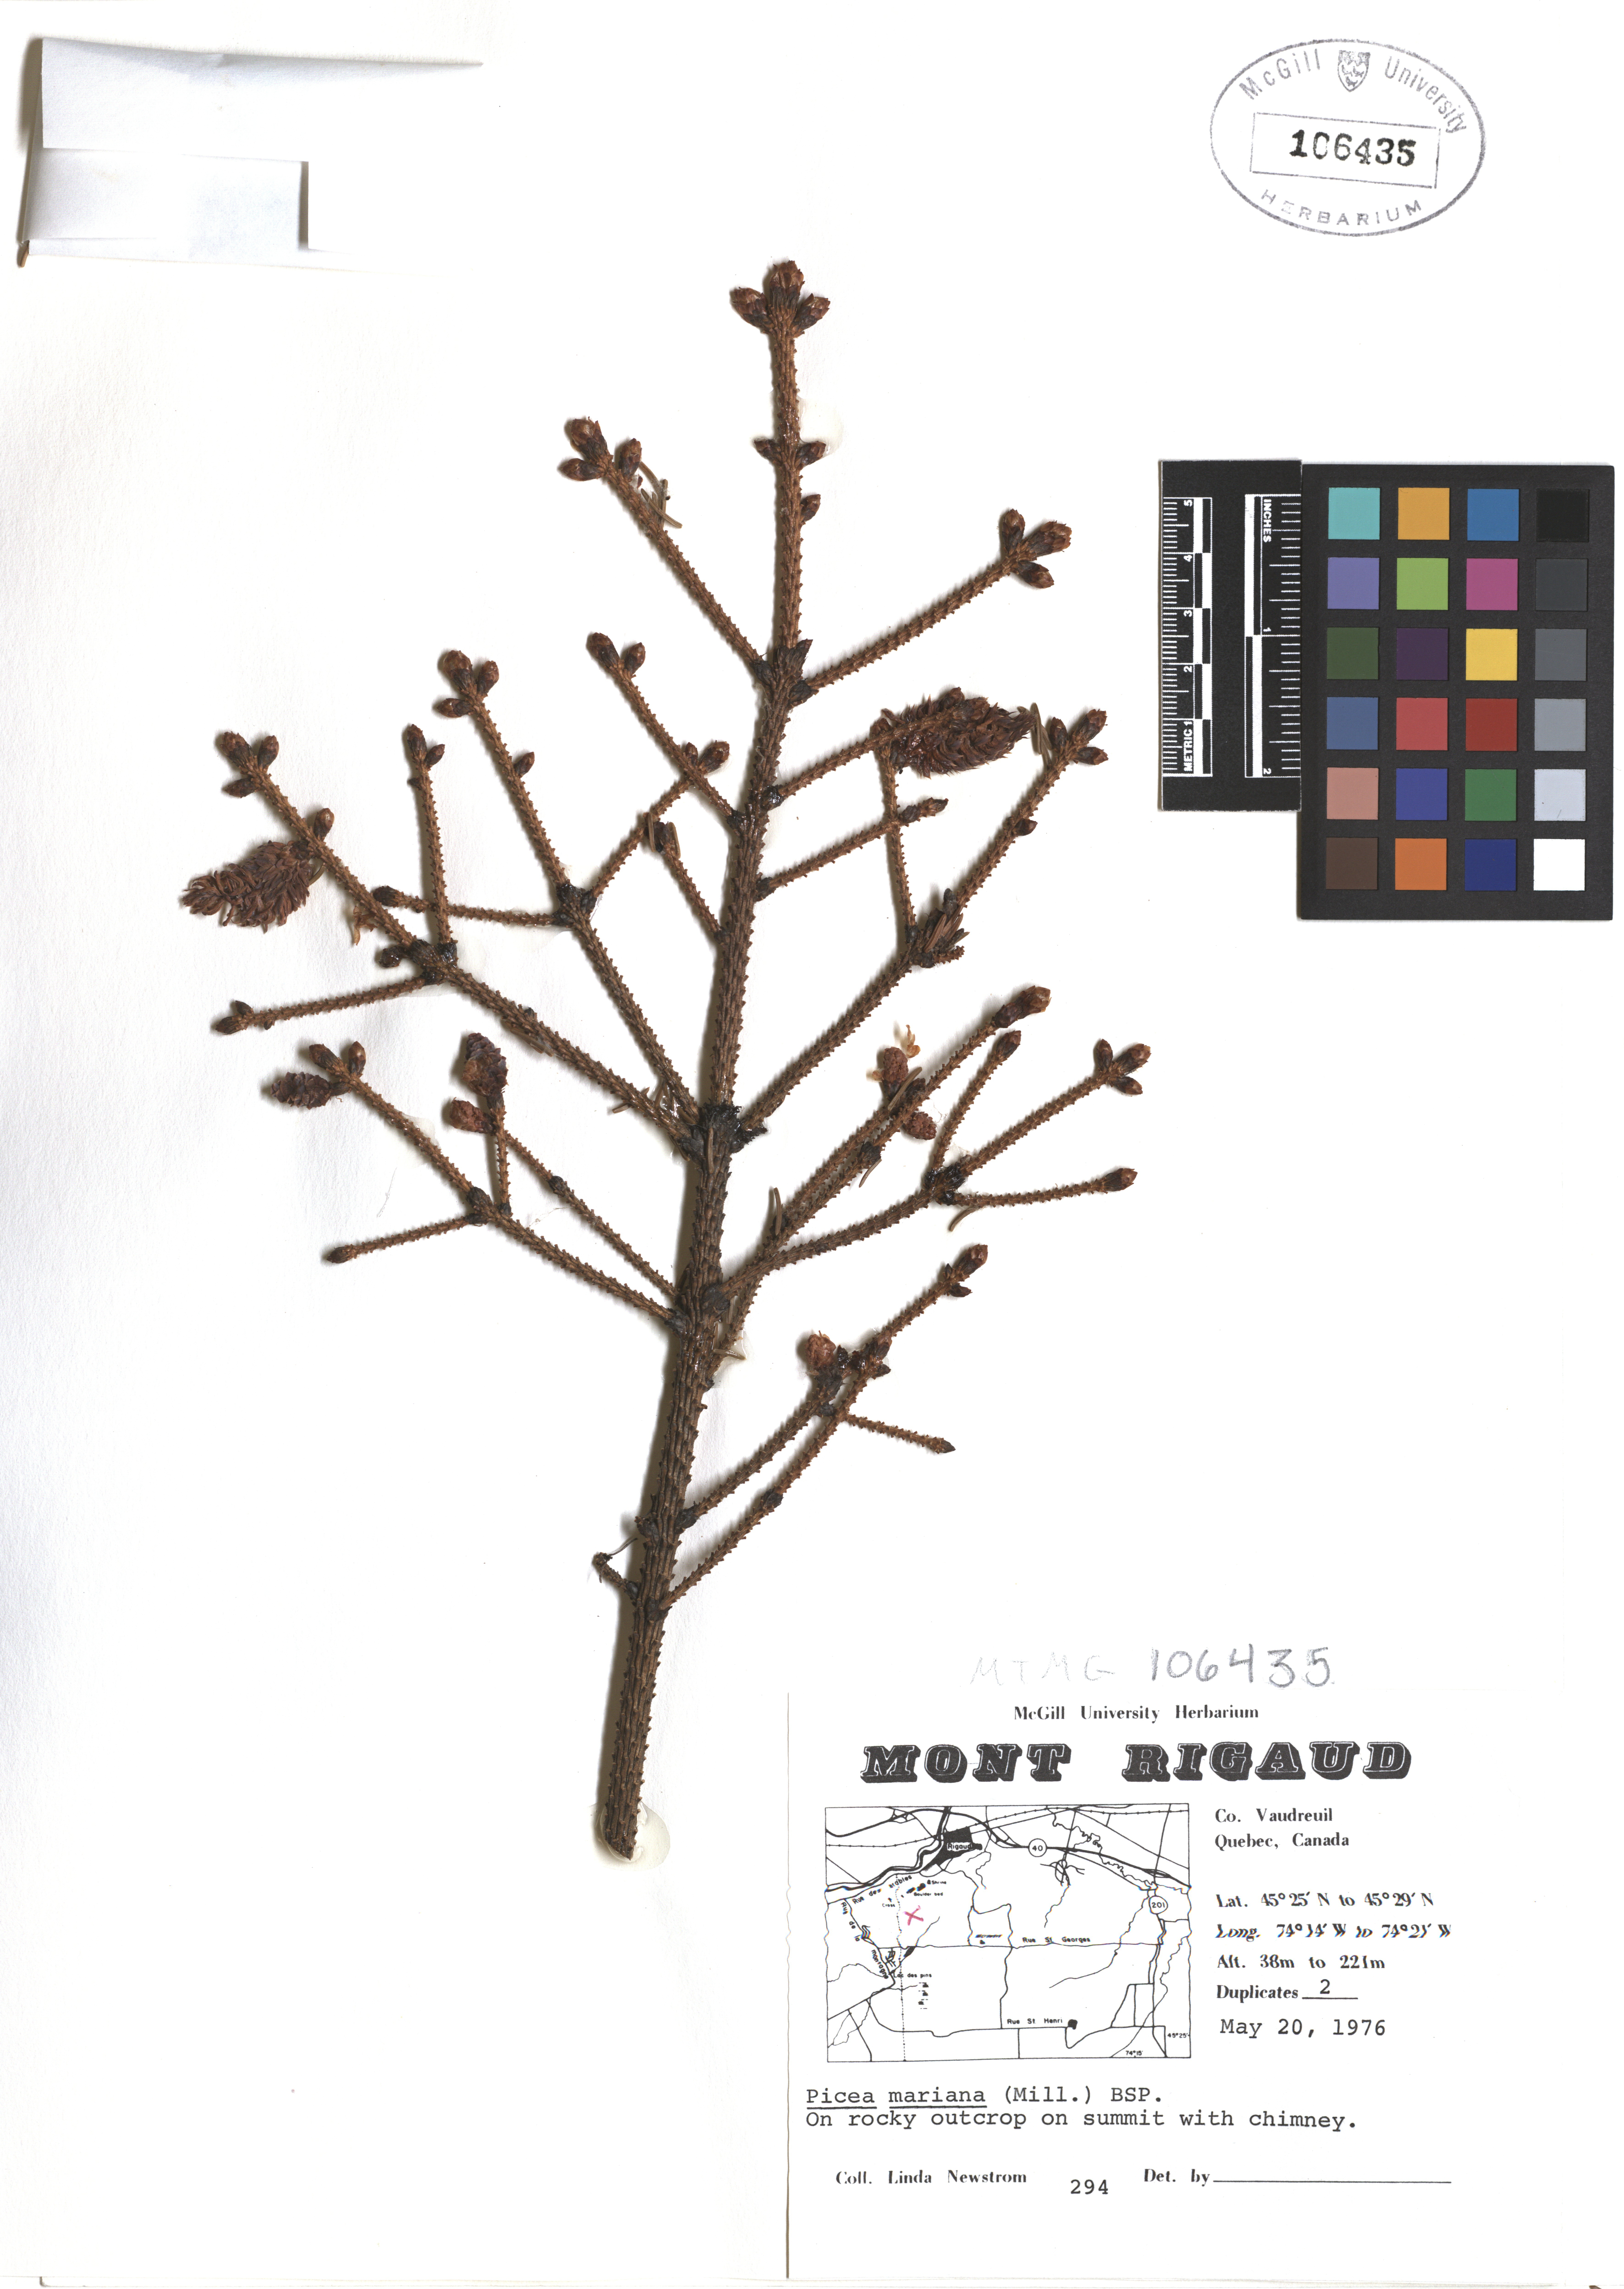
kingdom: Plantae
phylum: Tracheophyta
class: Pinopsida
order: Pinales
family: Pinaceae
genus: Picea
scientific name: Picea mariana
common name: Black spruce
